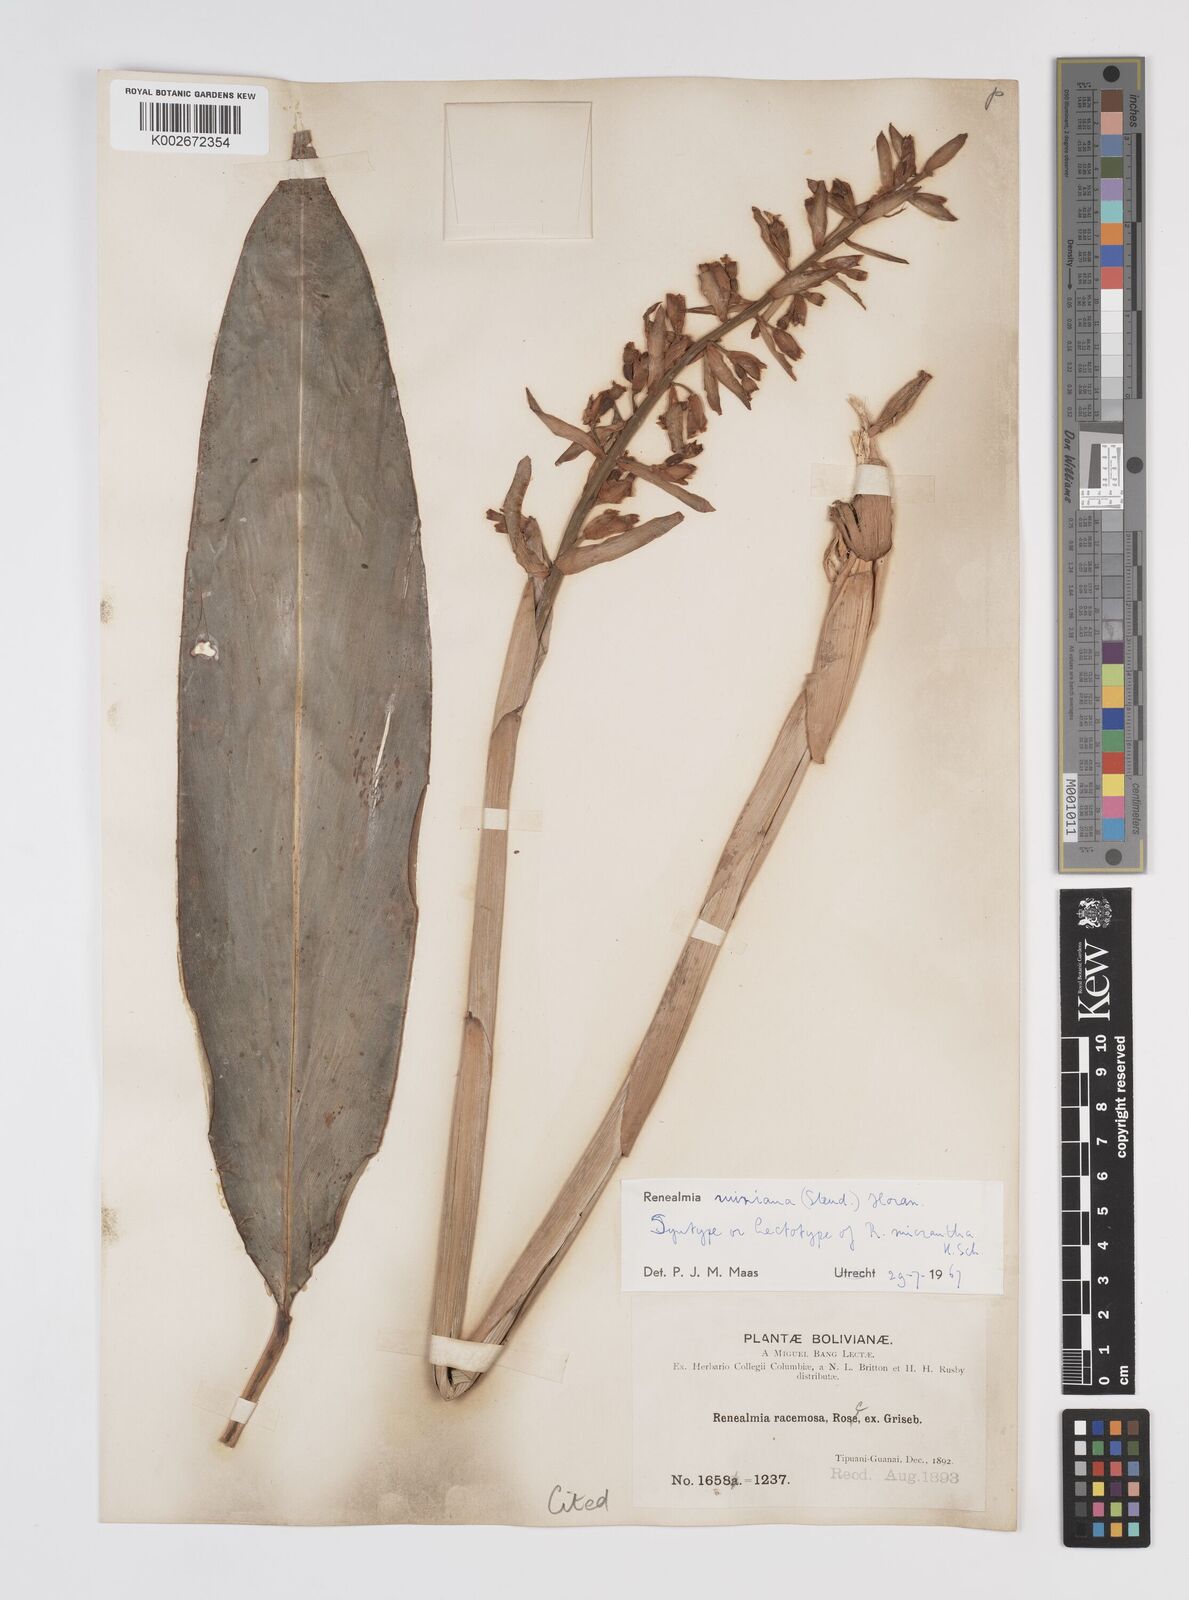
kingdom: Plantae
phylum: Tracheophyta
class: Liliopsida
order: Zingiberales
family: Zingiberaceae
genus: Renealmia
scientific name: Renealmia racemosa
